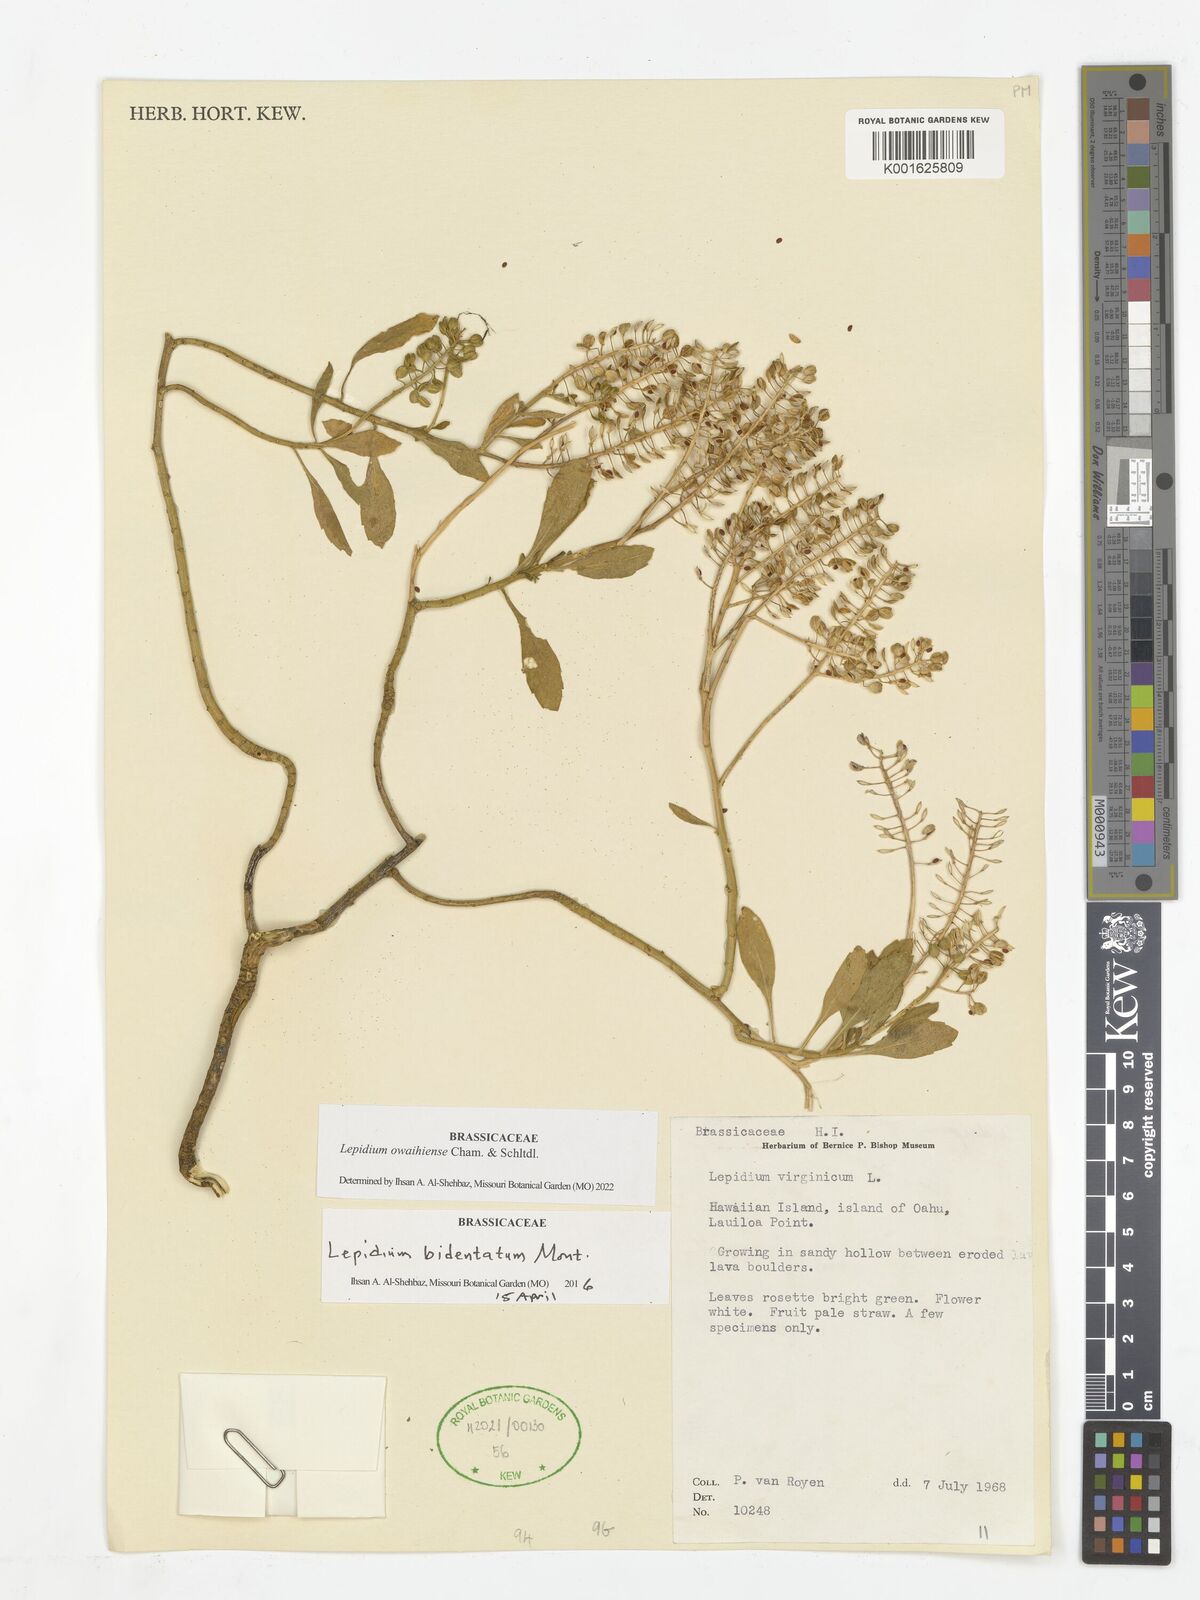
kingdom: Plantae
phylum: Tracheophyta
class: Magnoliopsida
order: Brassicales
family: Brassicaceae
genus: Lepidium
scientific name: Lepidium owaihiense
